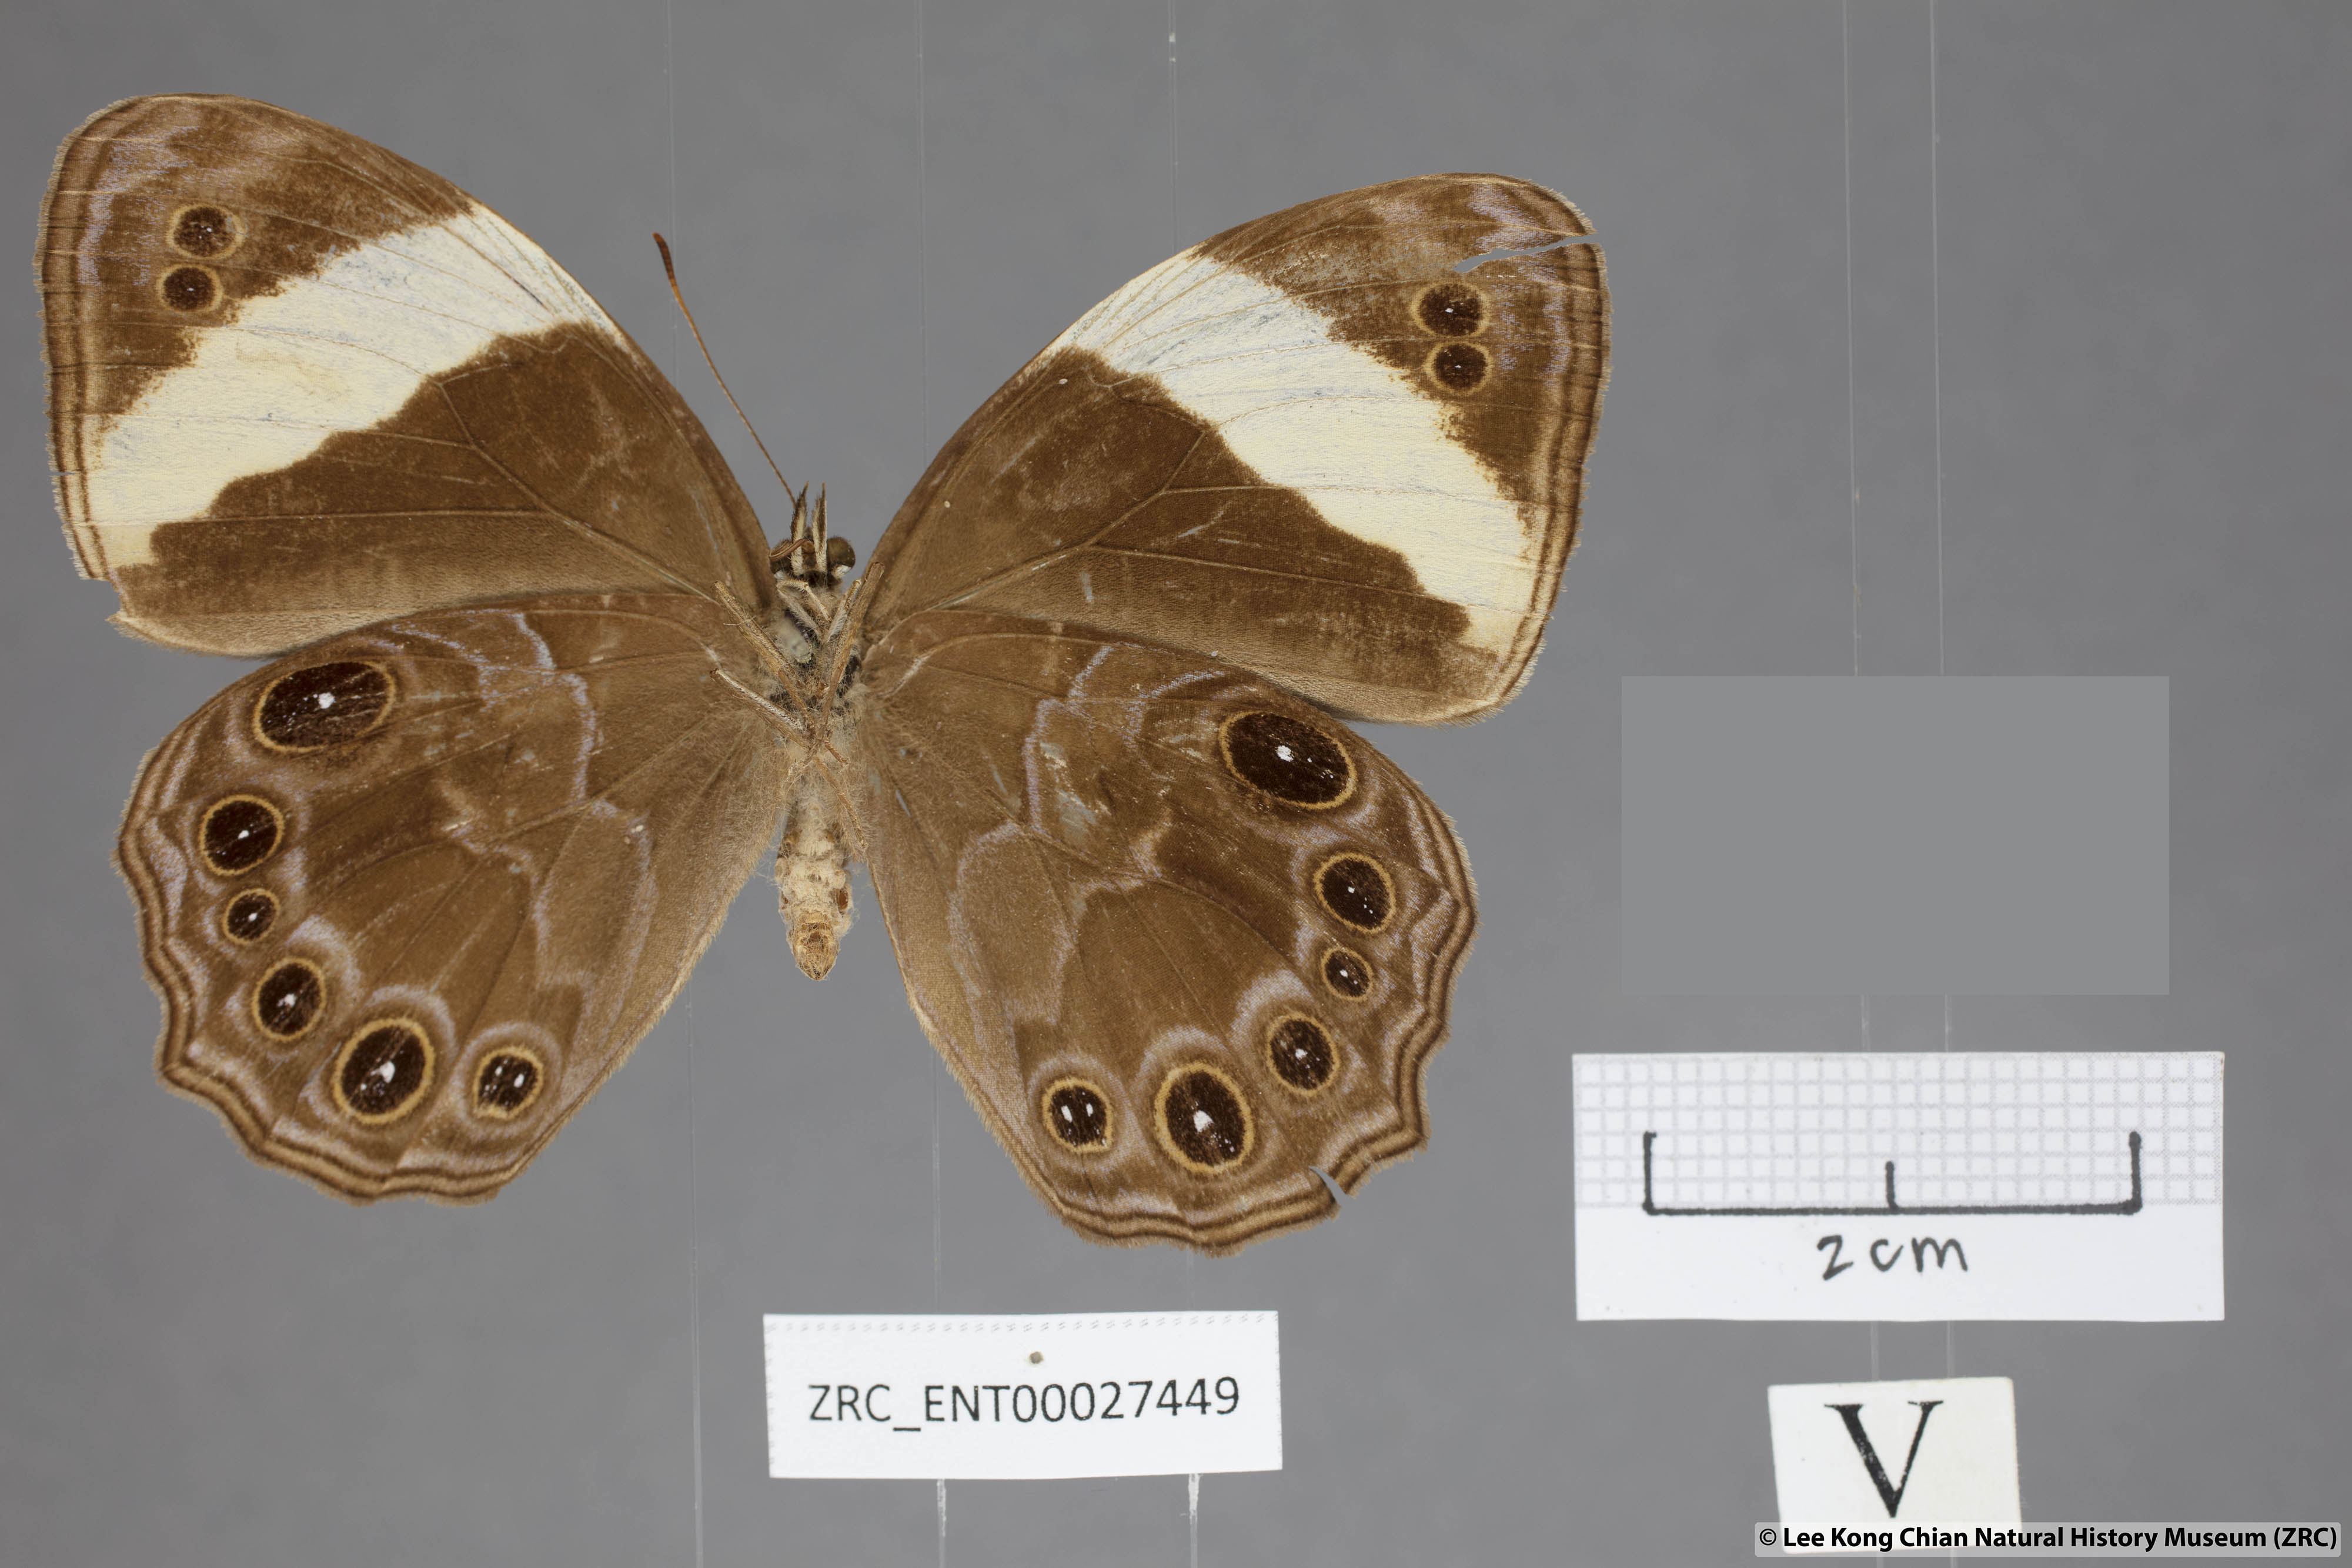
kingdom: Animalia
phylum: Arthropoda
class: Insecta
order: Lepidoptera
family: Nymphalidae
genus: Lethe
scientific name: Lethe verma
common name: Straight-banded treebrown
